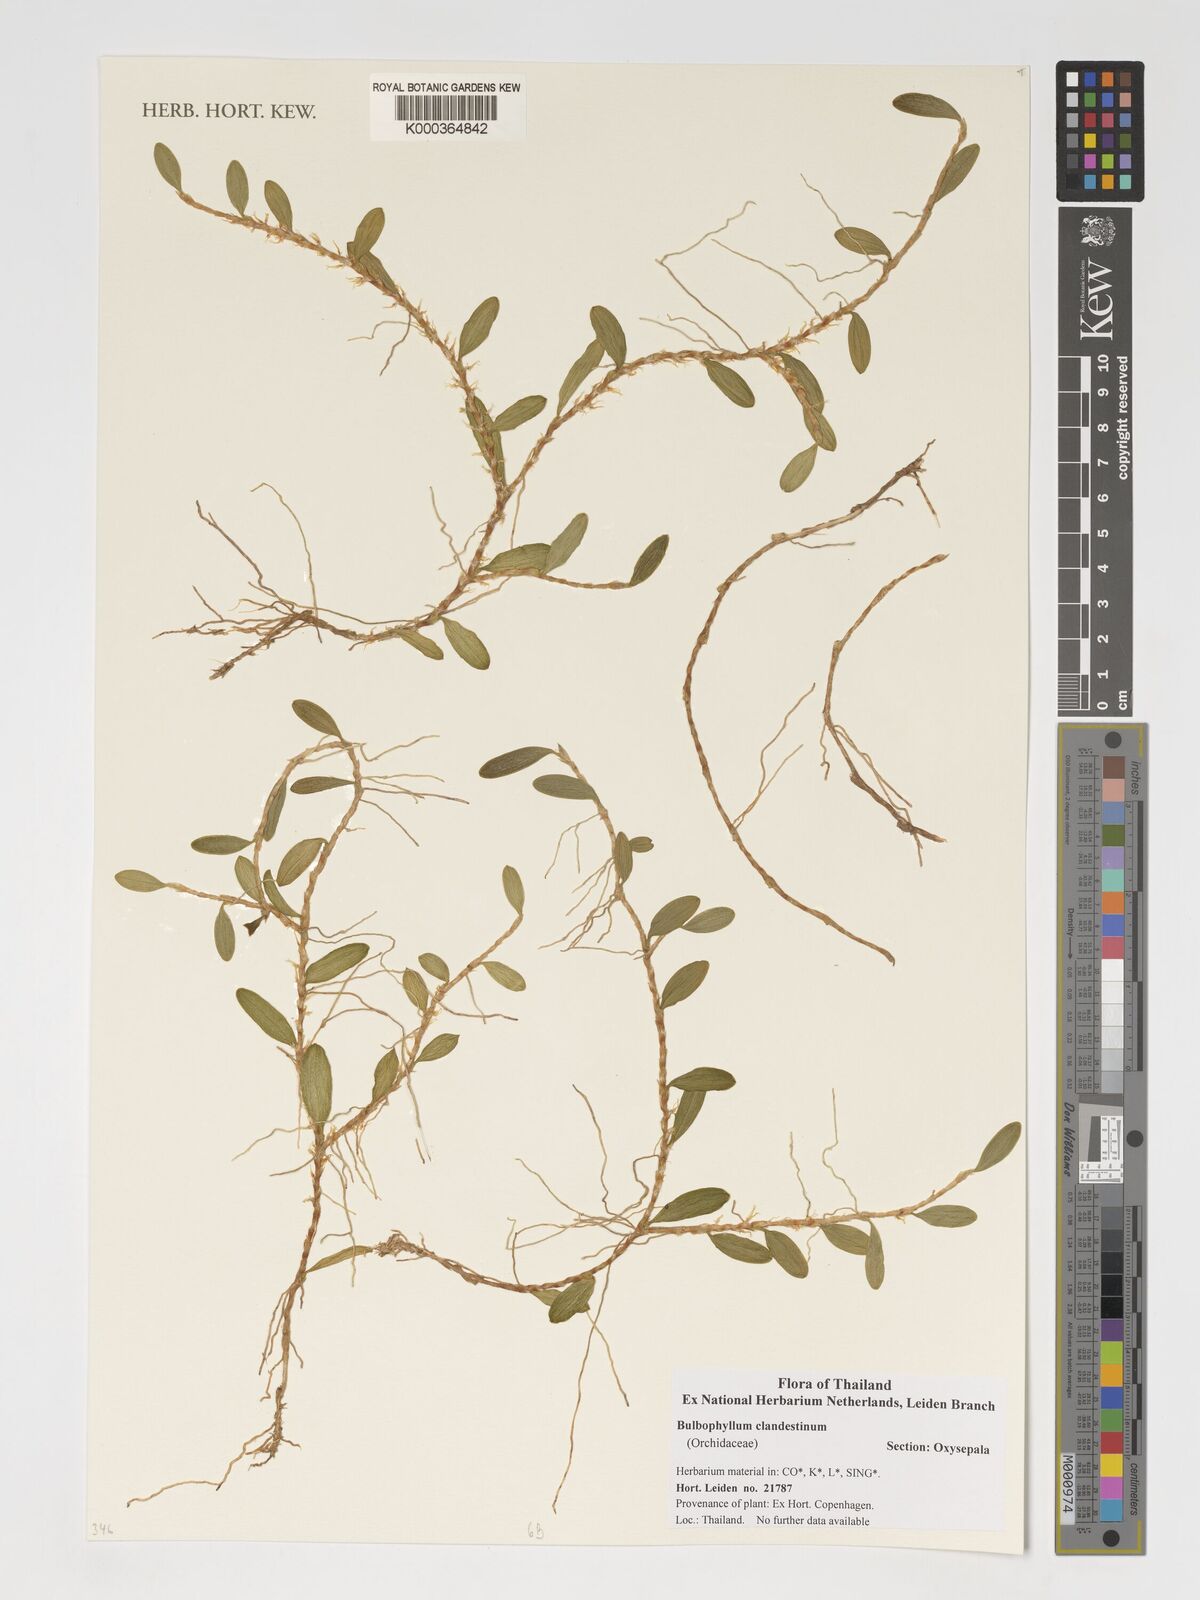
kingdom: Plantae
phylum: Tracheophyta
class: Liliopsida
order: Asparagales
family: Orchidaceae
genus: Bulbophyllum
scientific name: Bulbophyllum clandestinum
